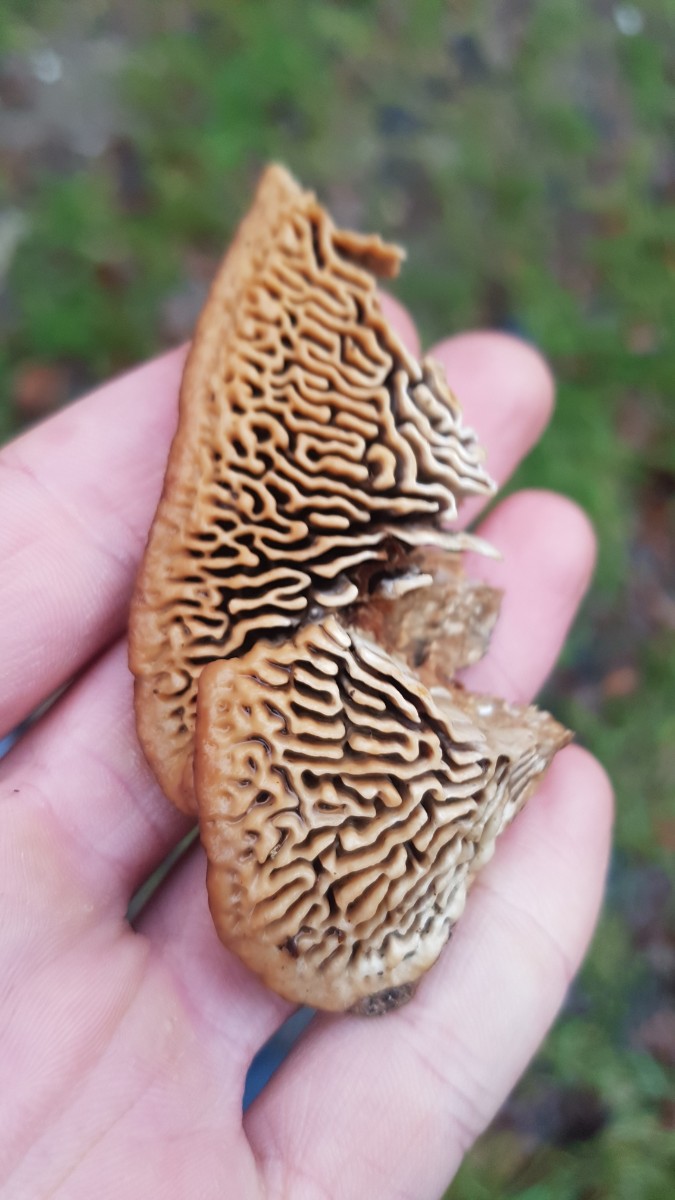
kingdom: Fungi
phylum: Basidiomycota
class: Agaricomycetes
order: Polyporales
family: Fomitopsidaceae
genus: Daedalea
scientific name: Daedalea quercina
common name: ege-labyrintsvamp
